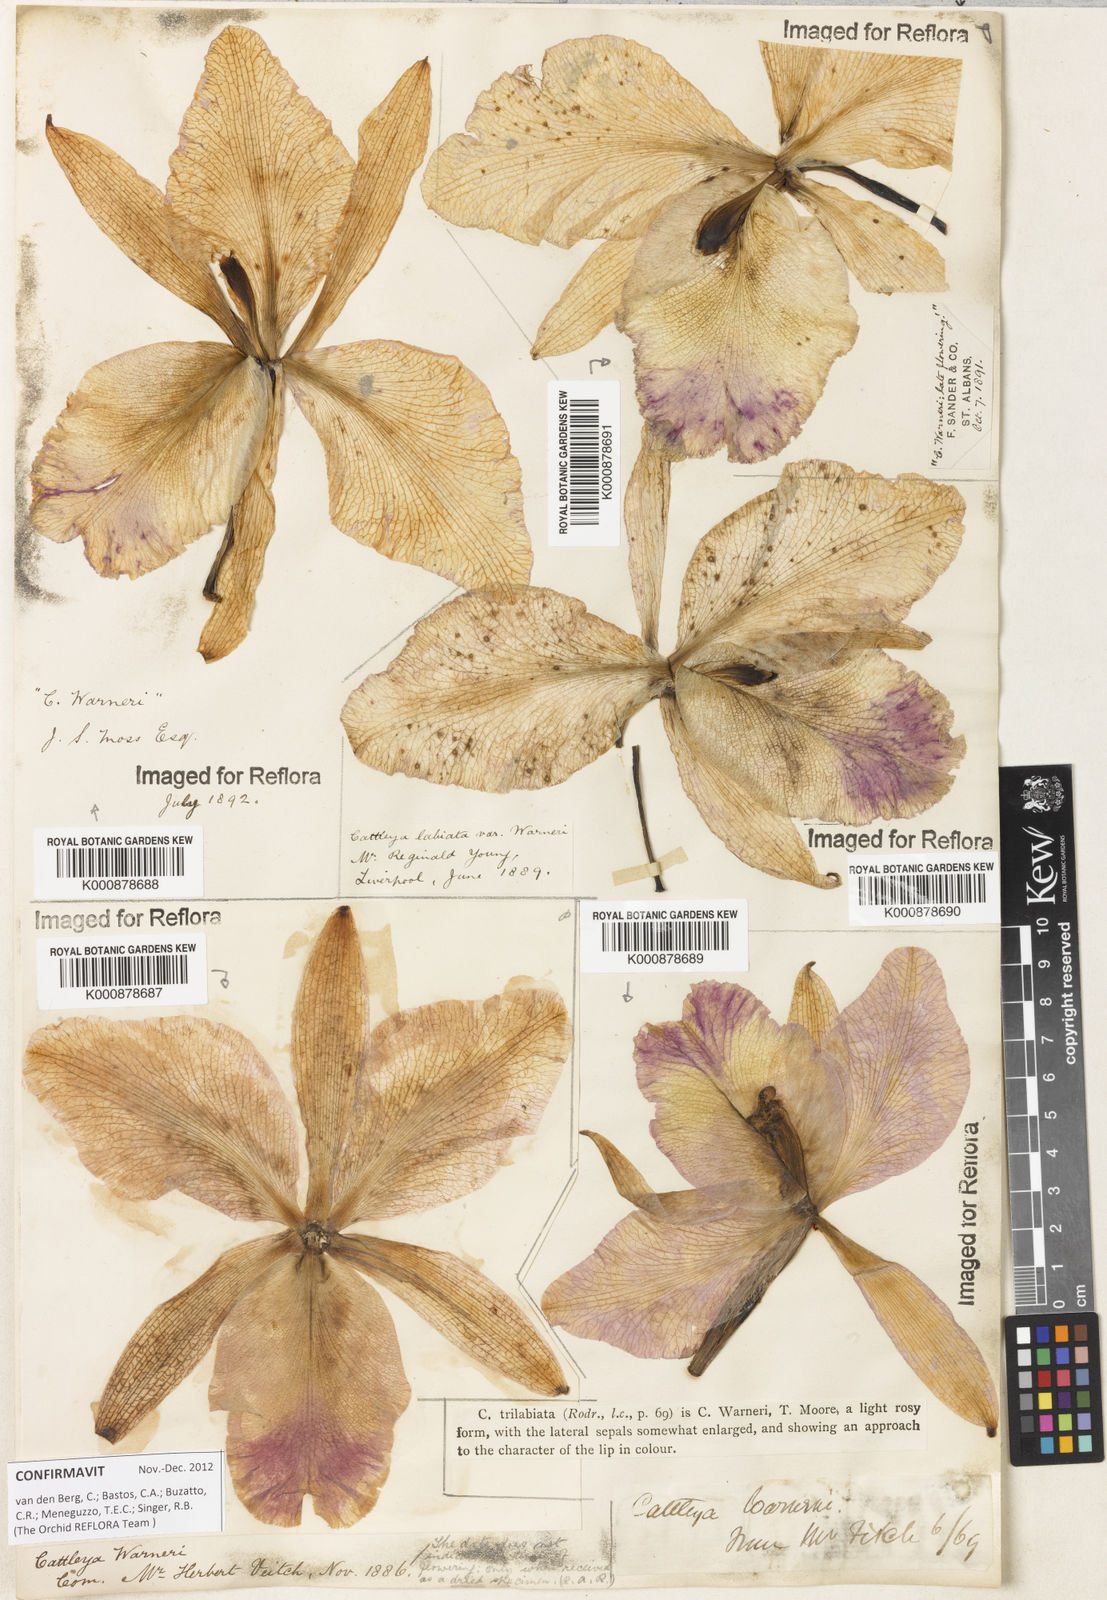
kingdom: Plantae
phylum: Tracheophyta
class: Liliopsida
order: Asparagales
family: Orchidaceae
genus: Cattleya
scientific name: Cattleya
